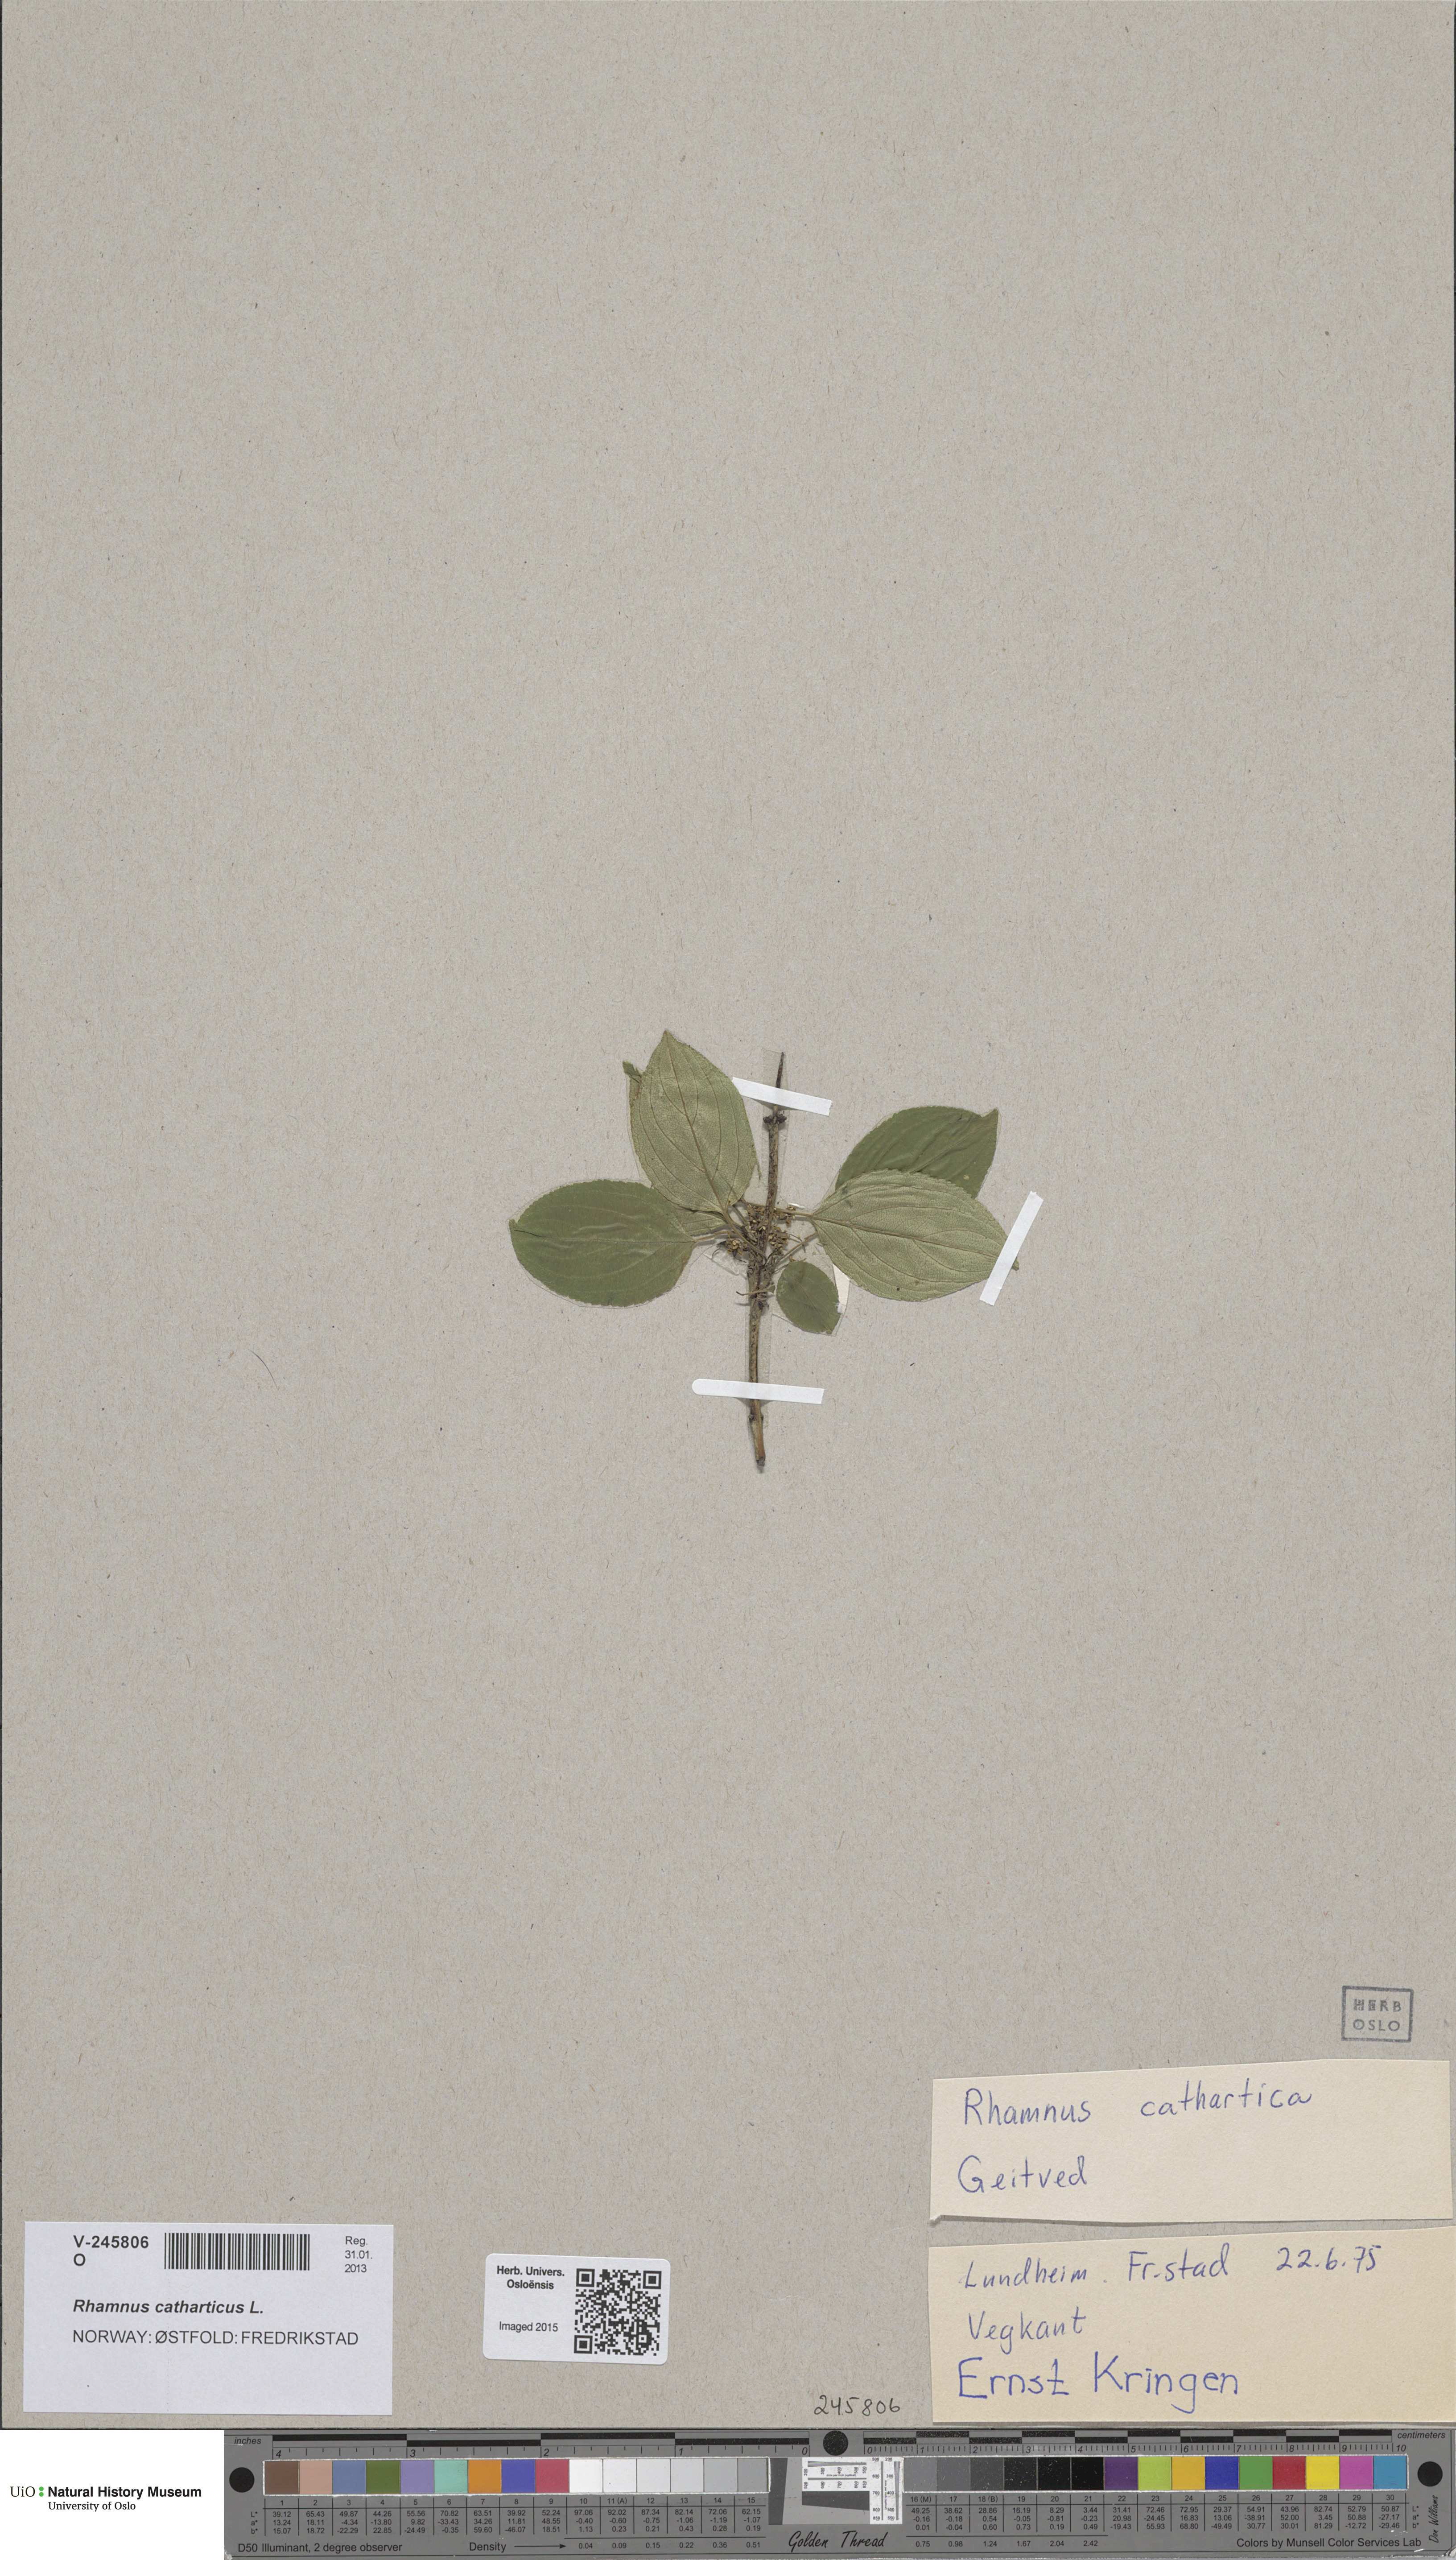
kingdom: Plantae
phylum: Tracheophyta
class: Magnoliopsida
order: Rosales
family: Rhamnaceae
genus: Rhamnus
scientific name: Rhamnus cathartica
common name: Common buckthorn
